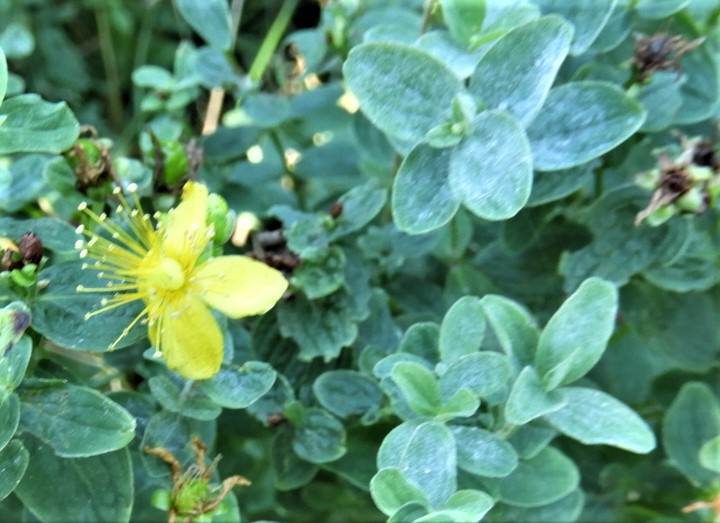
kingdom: Fungi
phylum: Ascomycota
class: Leotiomycetes
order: Helotiales
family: Erysiphaceae
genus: Erysiphe
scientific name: Erysiphe hyperici
